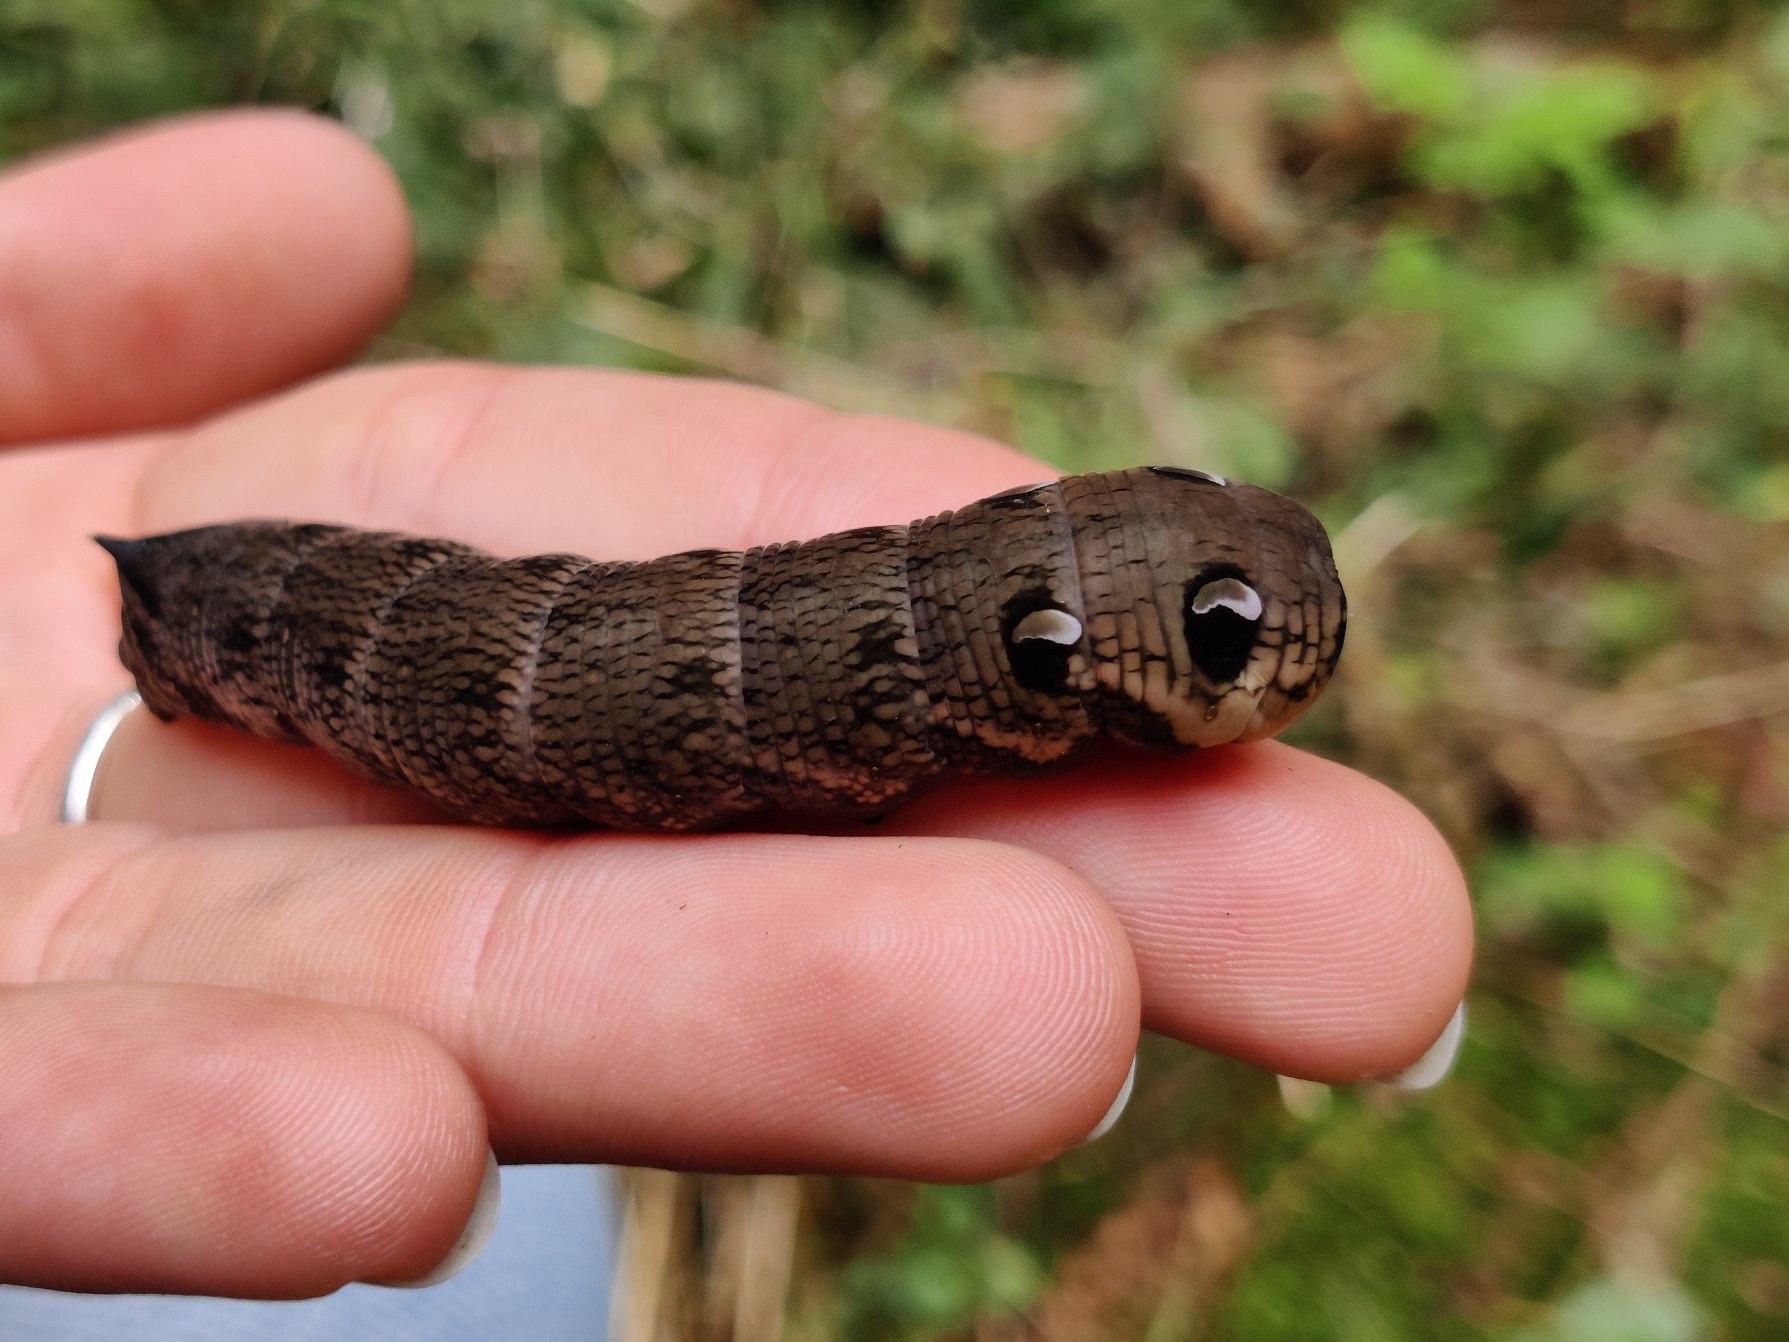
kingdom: Animalia
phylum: Arthropoda
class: Insecta
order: Lepidoptera
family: Sphingidae
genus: Deilephila
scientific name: Deilephila elpenor
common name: Dueurtsværmer
